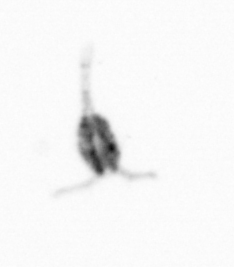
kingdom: Animalia
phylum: Arthropoda
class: Copepoda
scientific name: Copepoda
